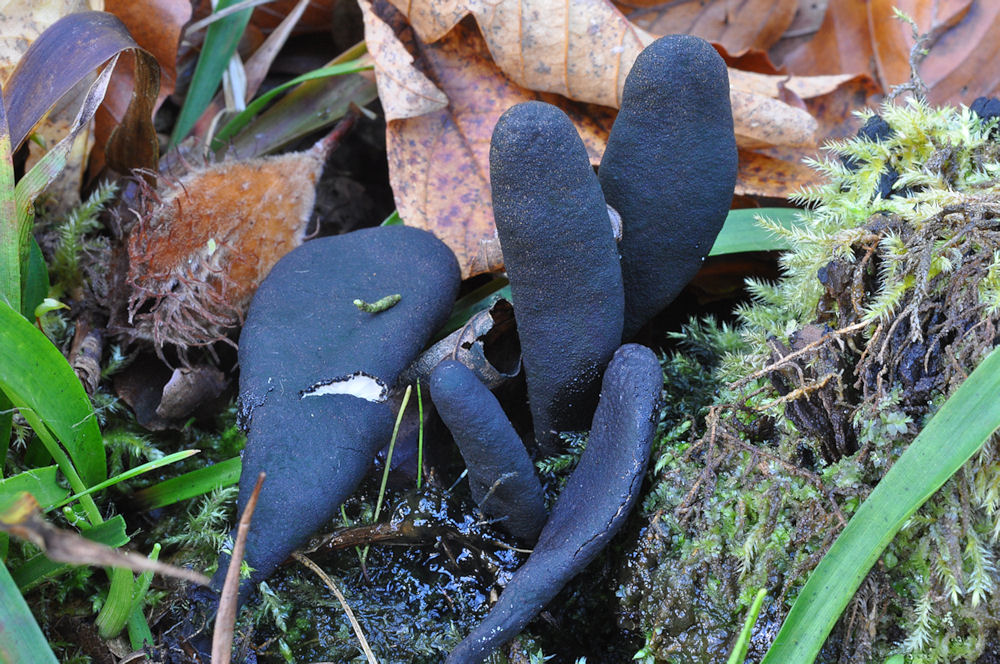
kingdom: Fungi
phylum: Ascomycota
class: Sordariomycetes
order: Xylariales
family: Xylariaceae
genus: Xylaria
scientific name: Xylaria longipes
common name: slank stødsvamp
